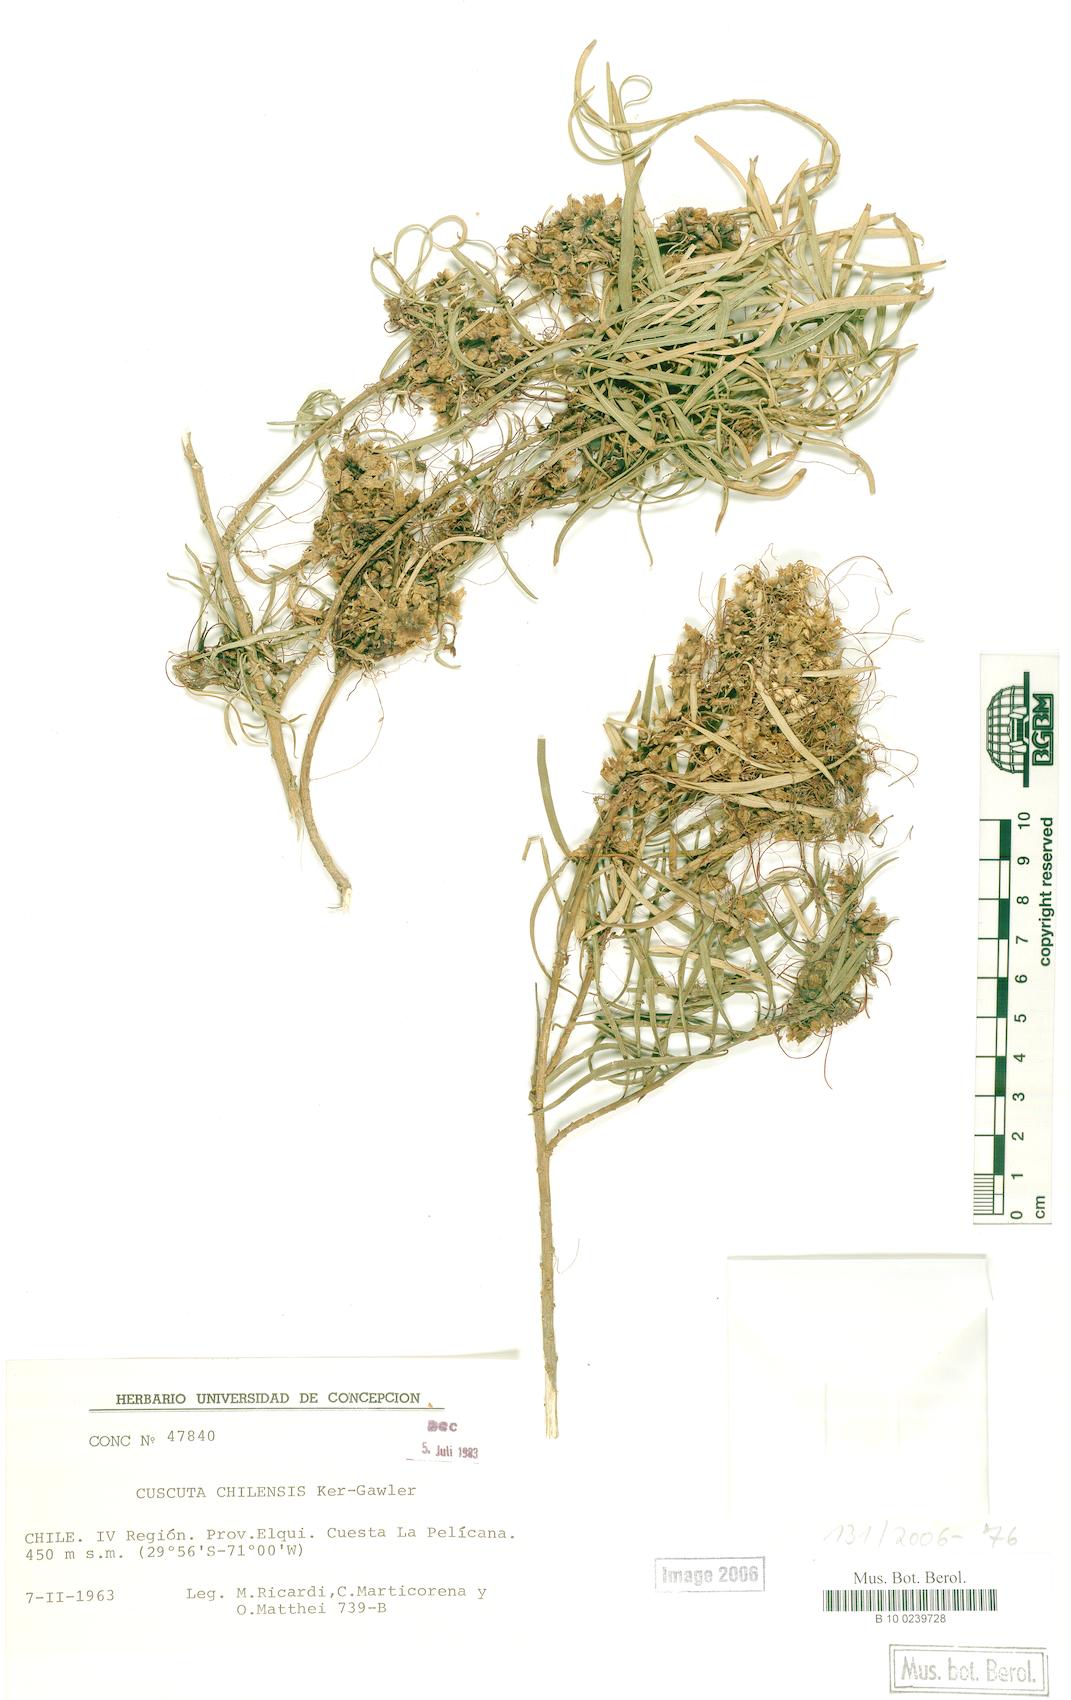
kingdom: Plantae
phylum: Tracheophyta
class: Magnoliopsida
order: Solanales
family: Convolvulaceae
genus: Cuscuta
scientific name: Cuscuta chilensis
